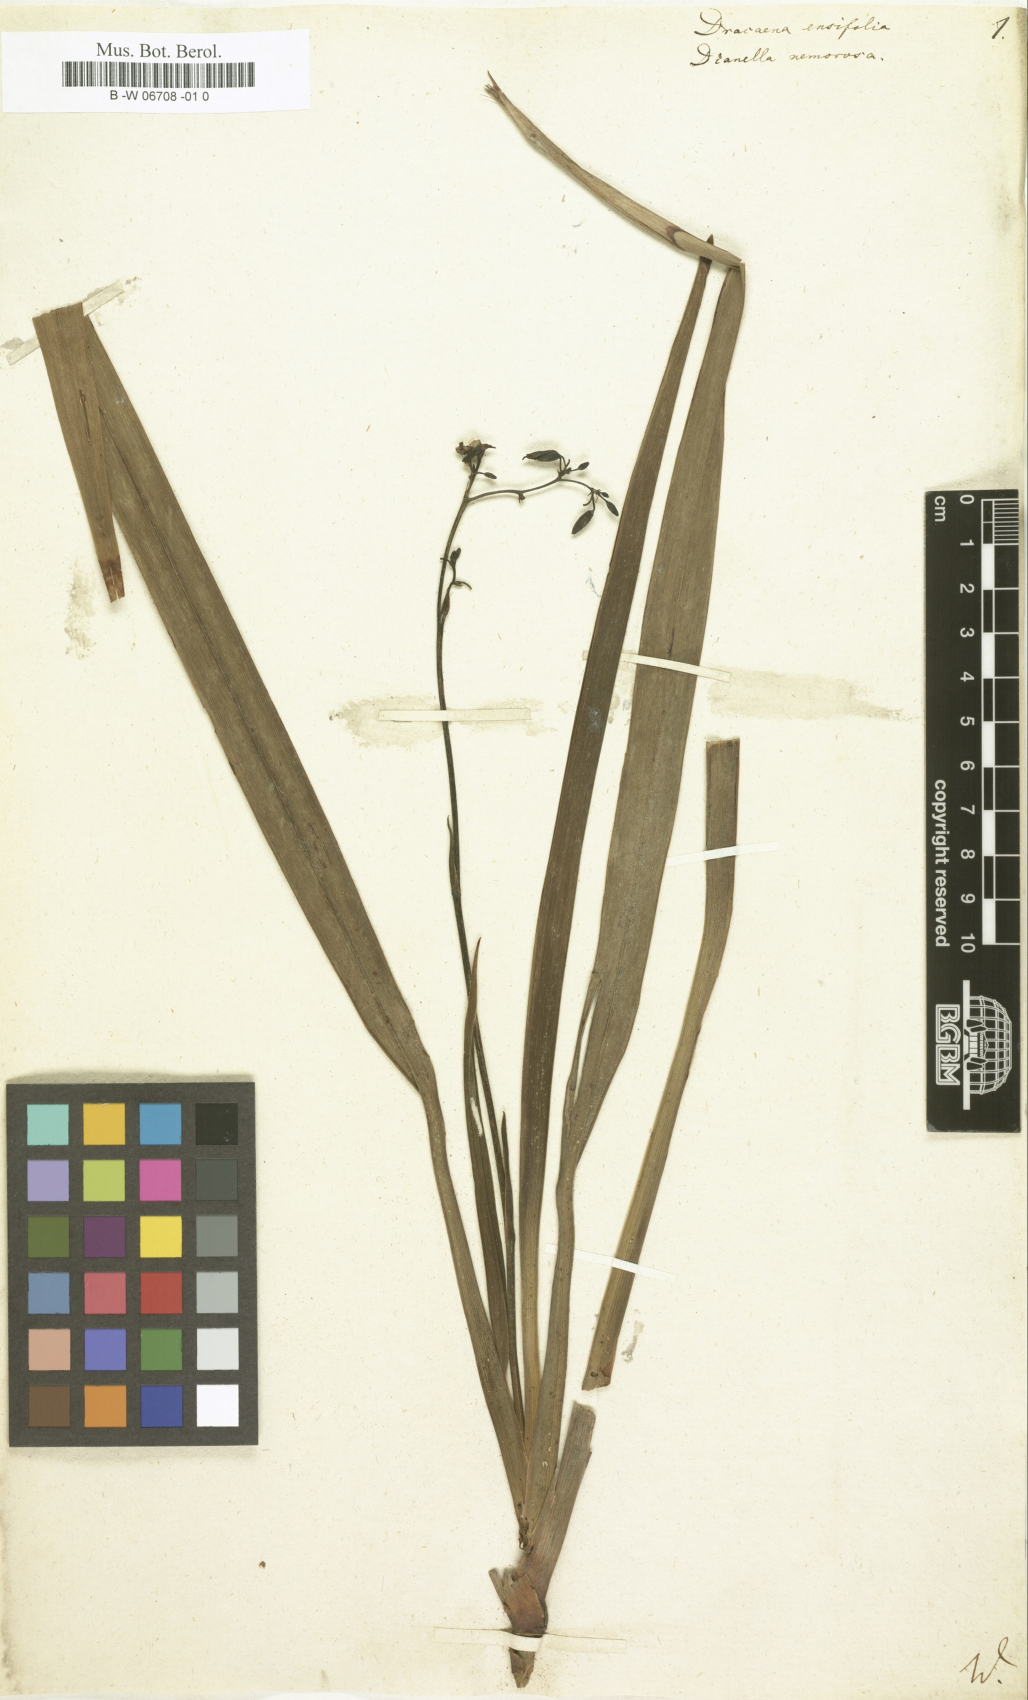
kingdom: Plantae
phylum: Tracheophyta
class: Liliopsida
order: Asparagales
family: Asparagaceae
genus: Dracaena
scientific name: Dracaena ensifolia
